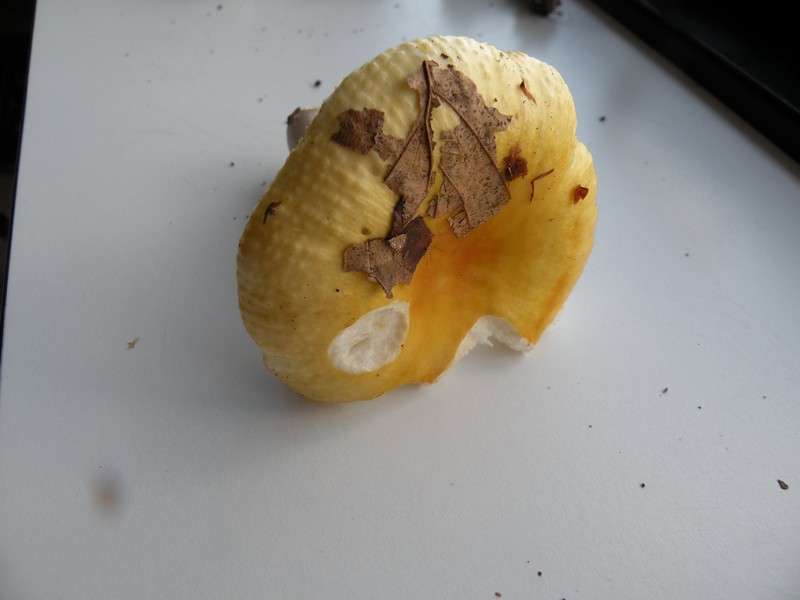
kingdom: Fungi
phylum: Basidiomycota
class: Agaricomycetes
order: Russulales
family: Russulaceae
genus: Russula
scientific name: Russula solaris
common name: sol-skørhat
